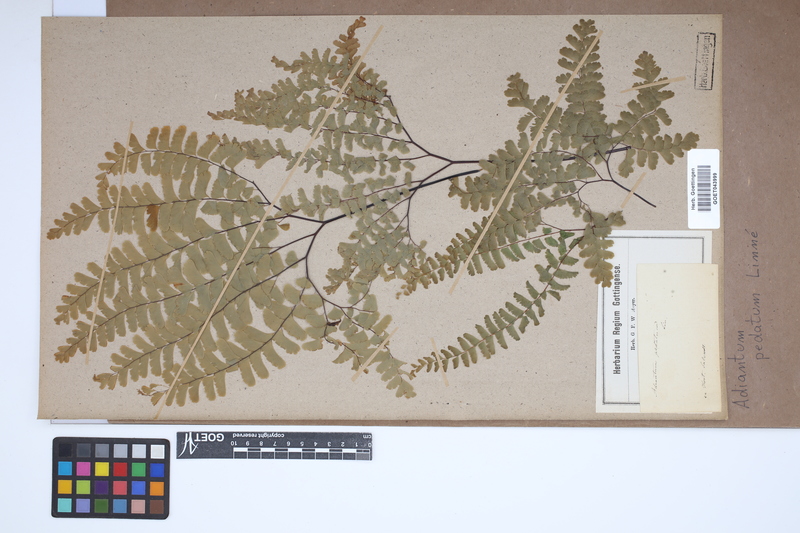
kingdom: Plantae
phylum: Tracheophyta
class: Polypodiopsida
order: Polypodiales
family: Pteridaceae
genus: Adiantum
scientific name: Adiantum pedatum
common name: Five-finger fern
